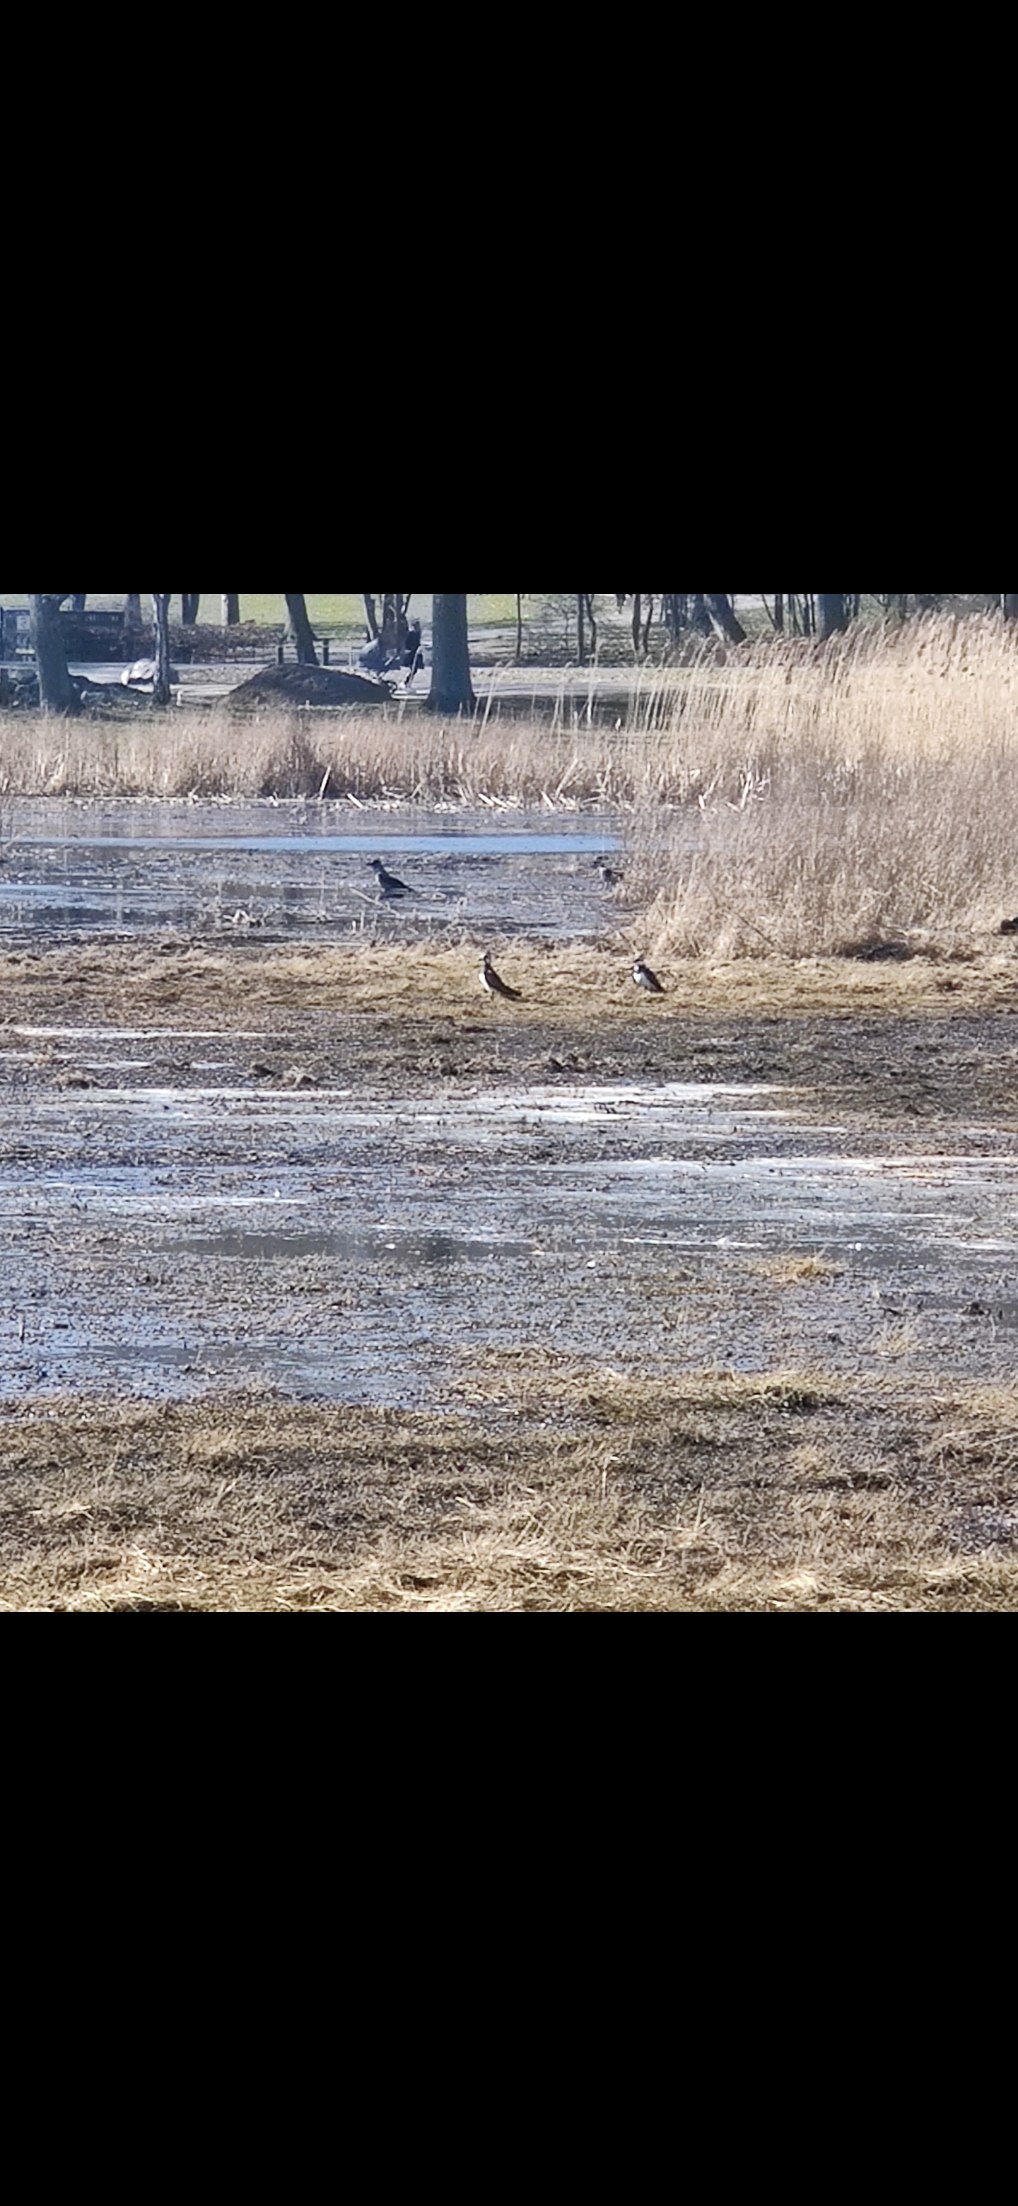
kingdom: Animalia
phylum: Chordata
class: Aves
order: Charadriiformes
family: Charadriidae
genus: Vanellus
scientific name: Vanellus vanellus
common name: Vibe
